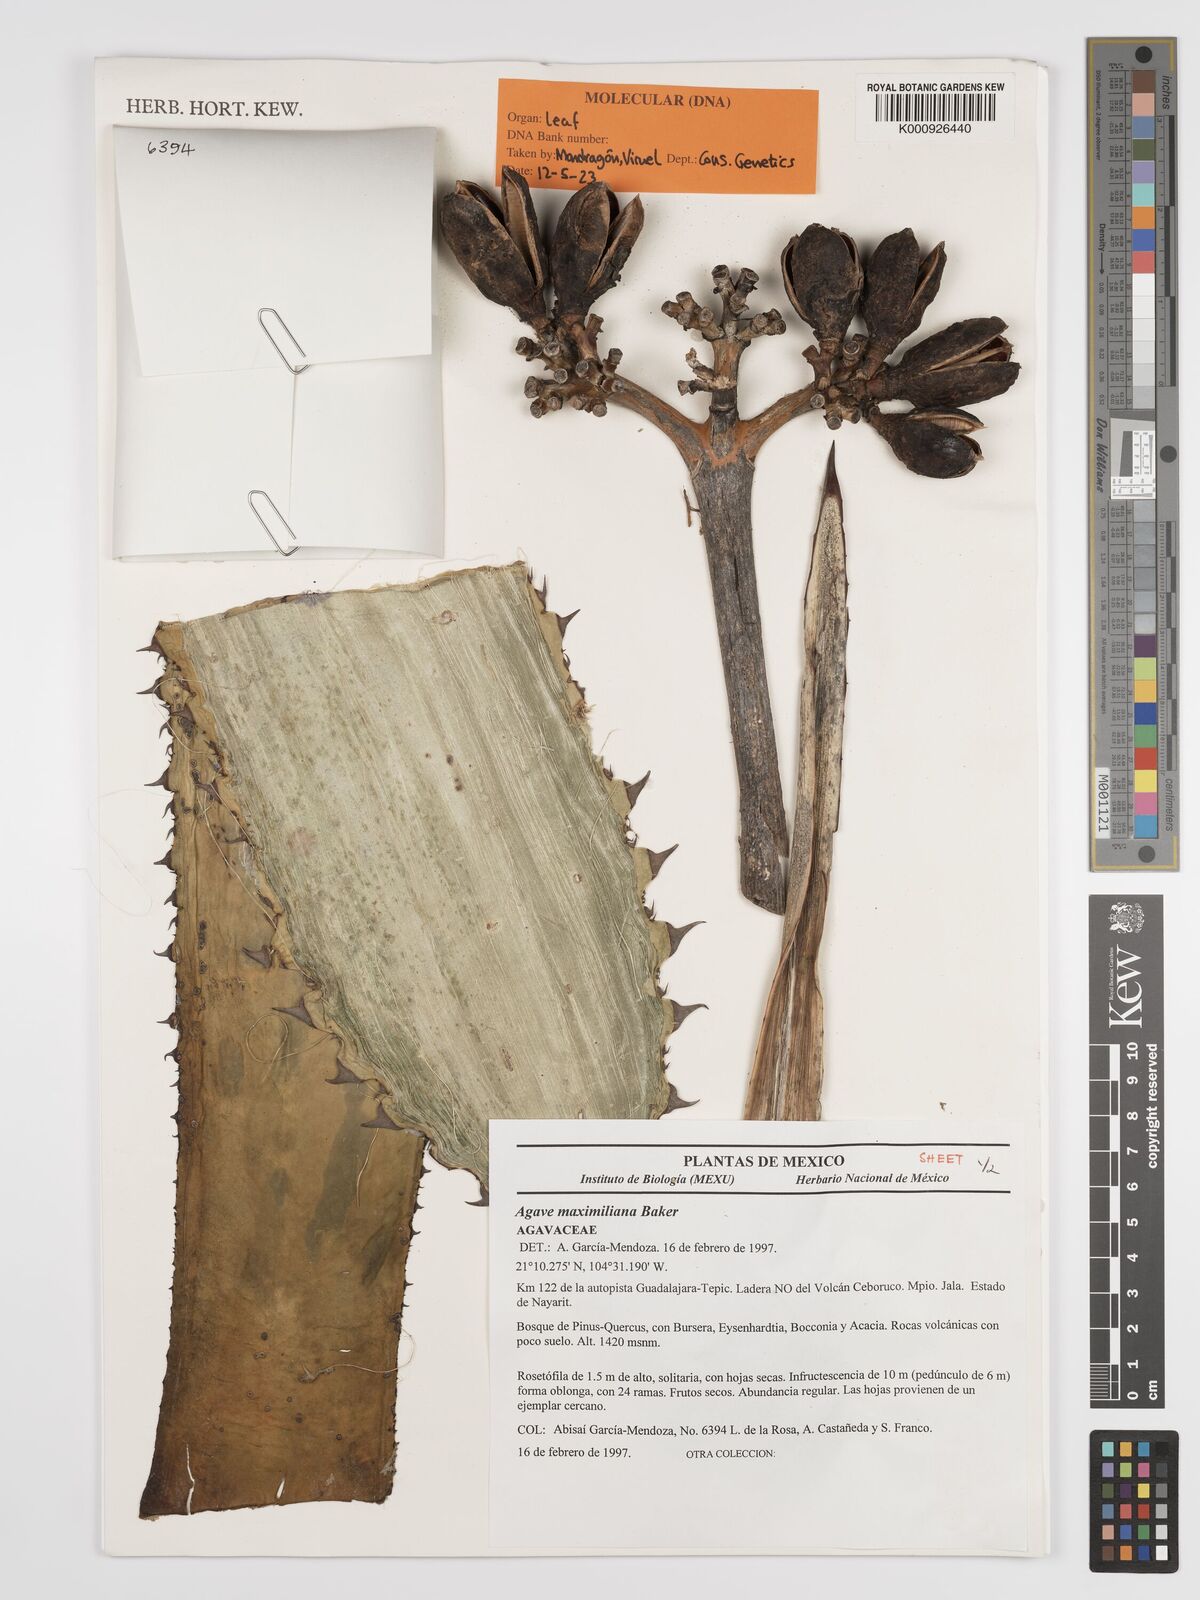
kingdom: Plantae
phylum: Tracheophyta
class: Liliopsida
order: Asparagales
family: Asparagaceae
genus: Agave
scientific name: Agave maximiliana
